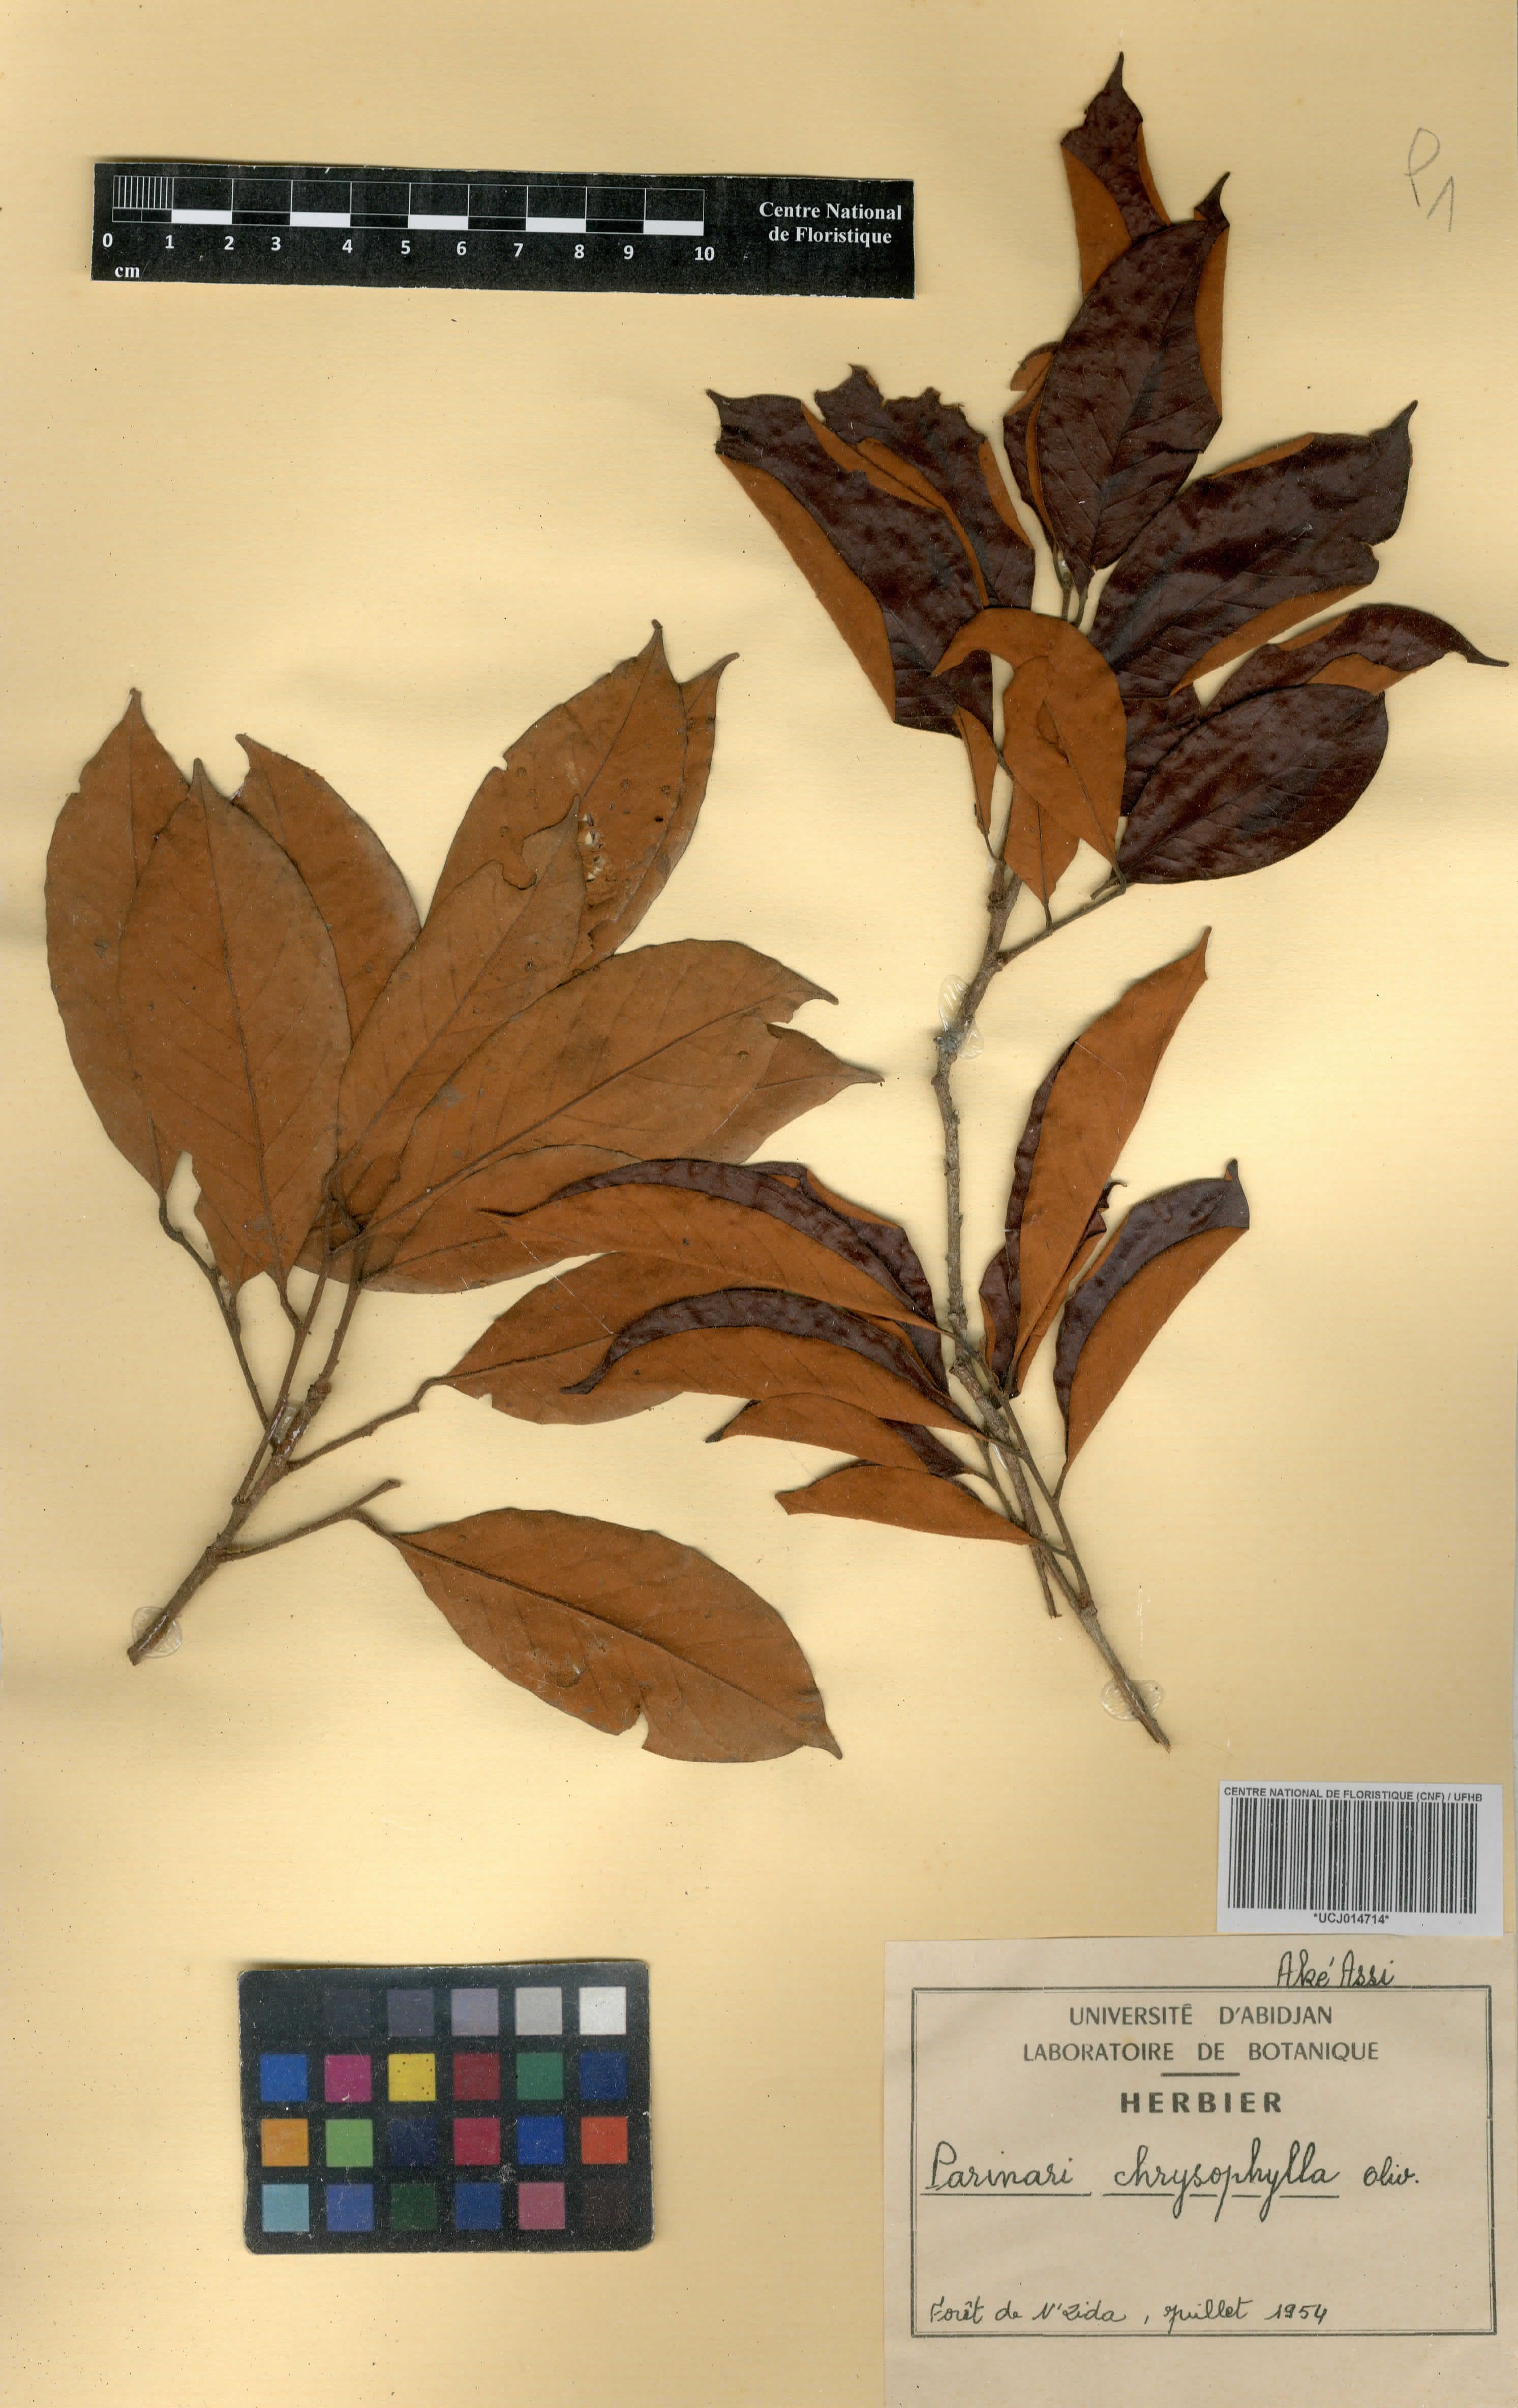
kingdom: Plantae
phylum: Tracheophyta
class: Magnoliopsida
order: Malpighiales
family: Chrysobalanaceae
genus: Maranthes
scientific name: Maranthes chrysophylla
